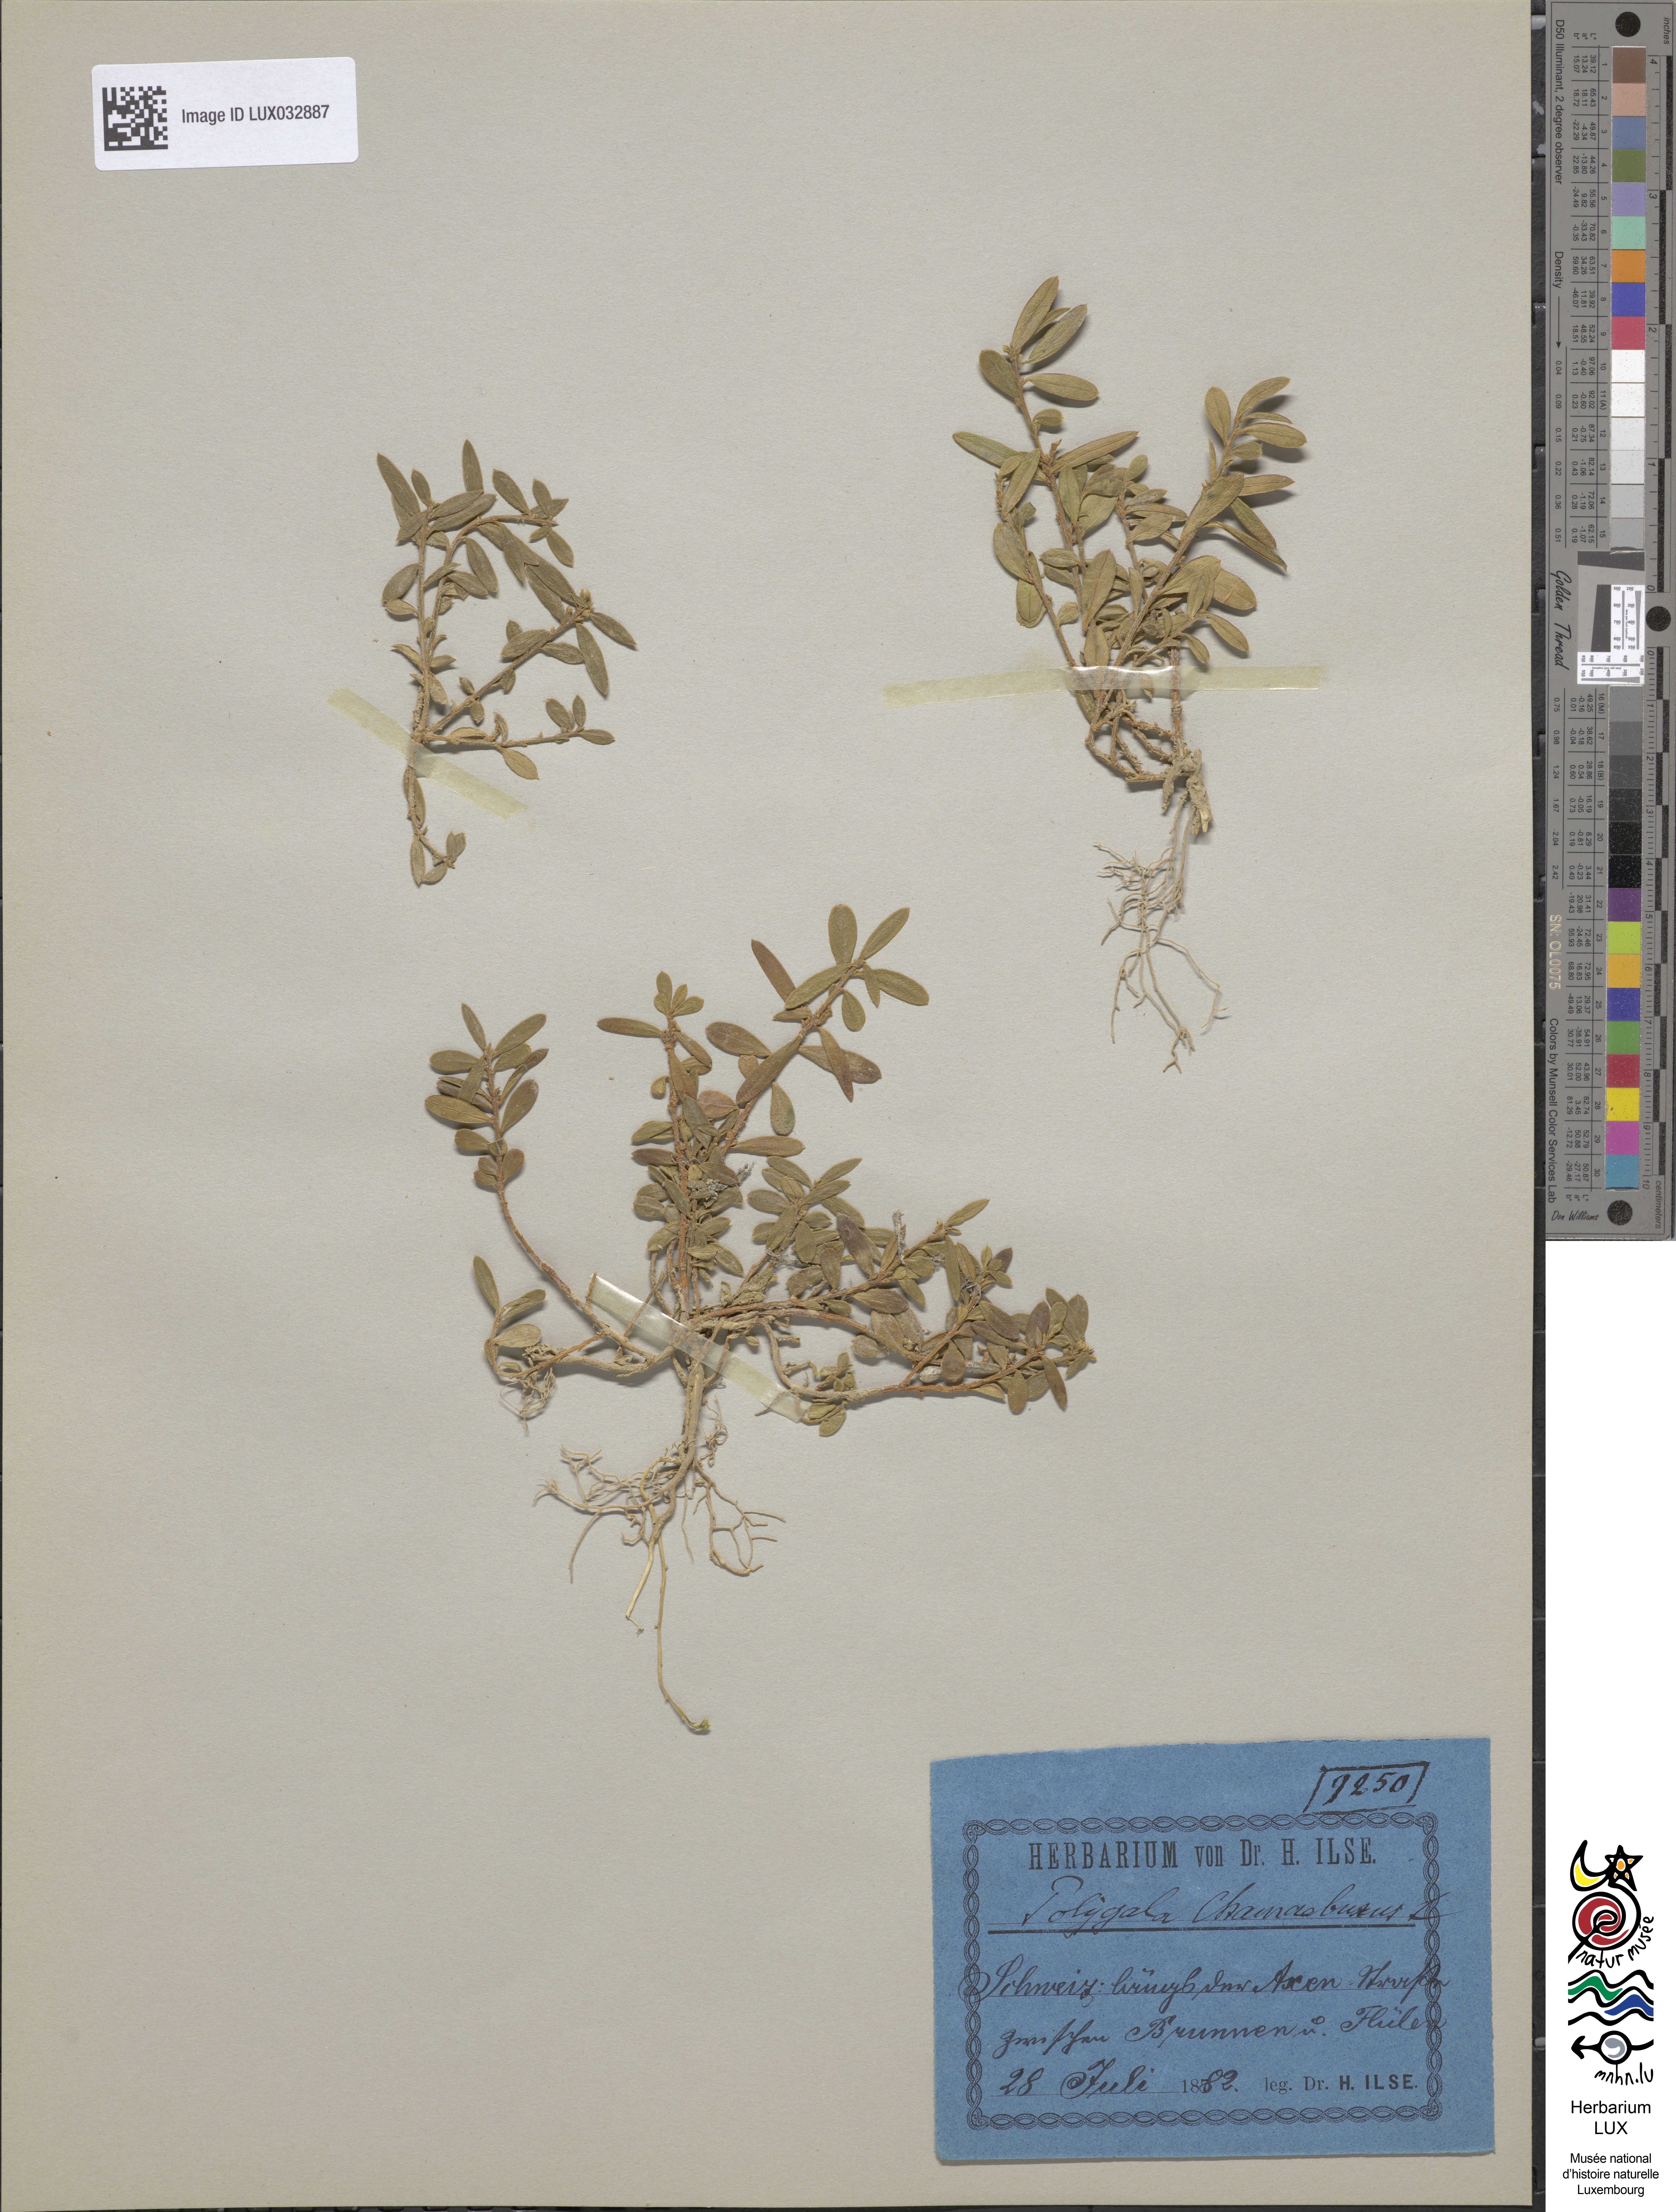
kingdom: Plantae
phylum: Tracheophyta
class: Magnoliopsida
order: Fabales
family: Polygalaceae
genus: Polygaloides
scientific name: Polygaloides chamaebuxus
